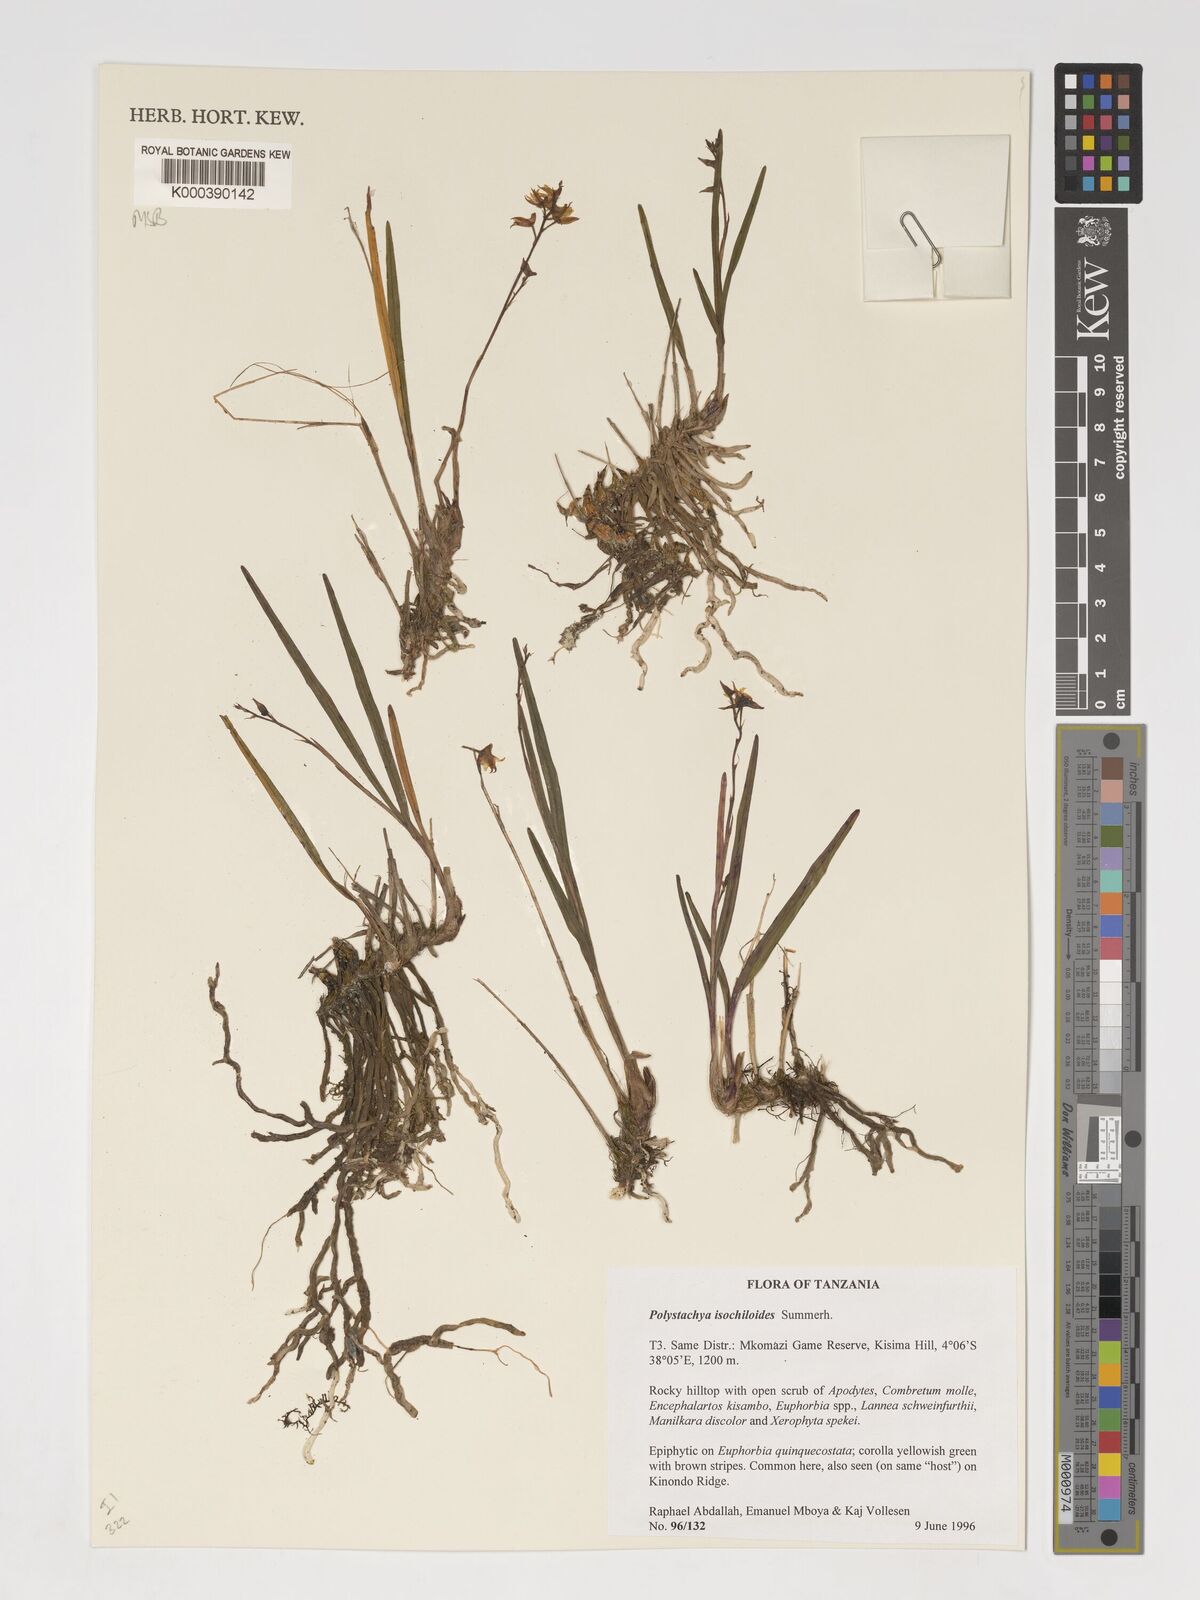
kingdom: Plantae
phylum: Tracheophyta
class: Liliopsida
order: Asparagales
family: Orchidaceae
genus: Polystachya
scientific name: Polystachya isochiloides
